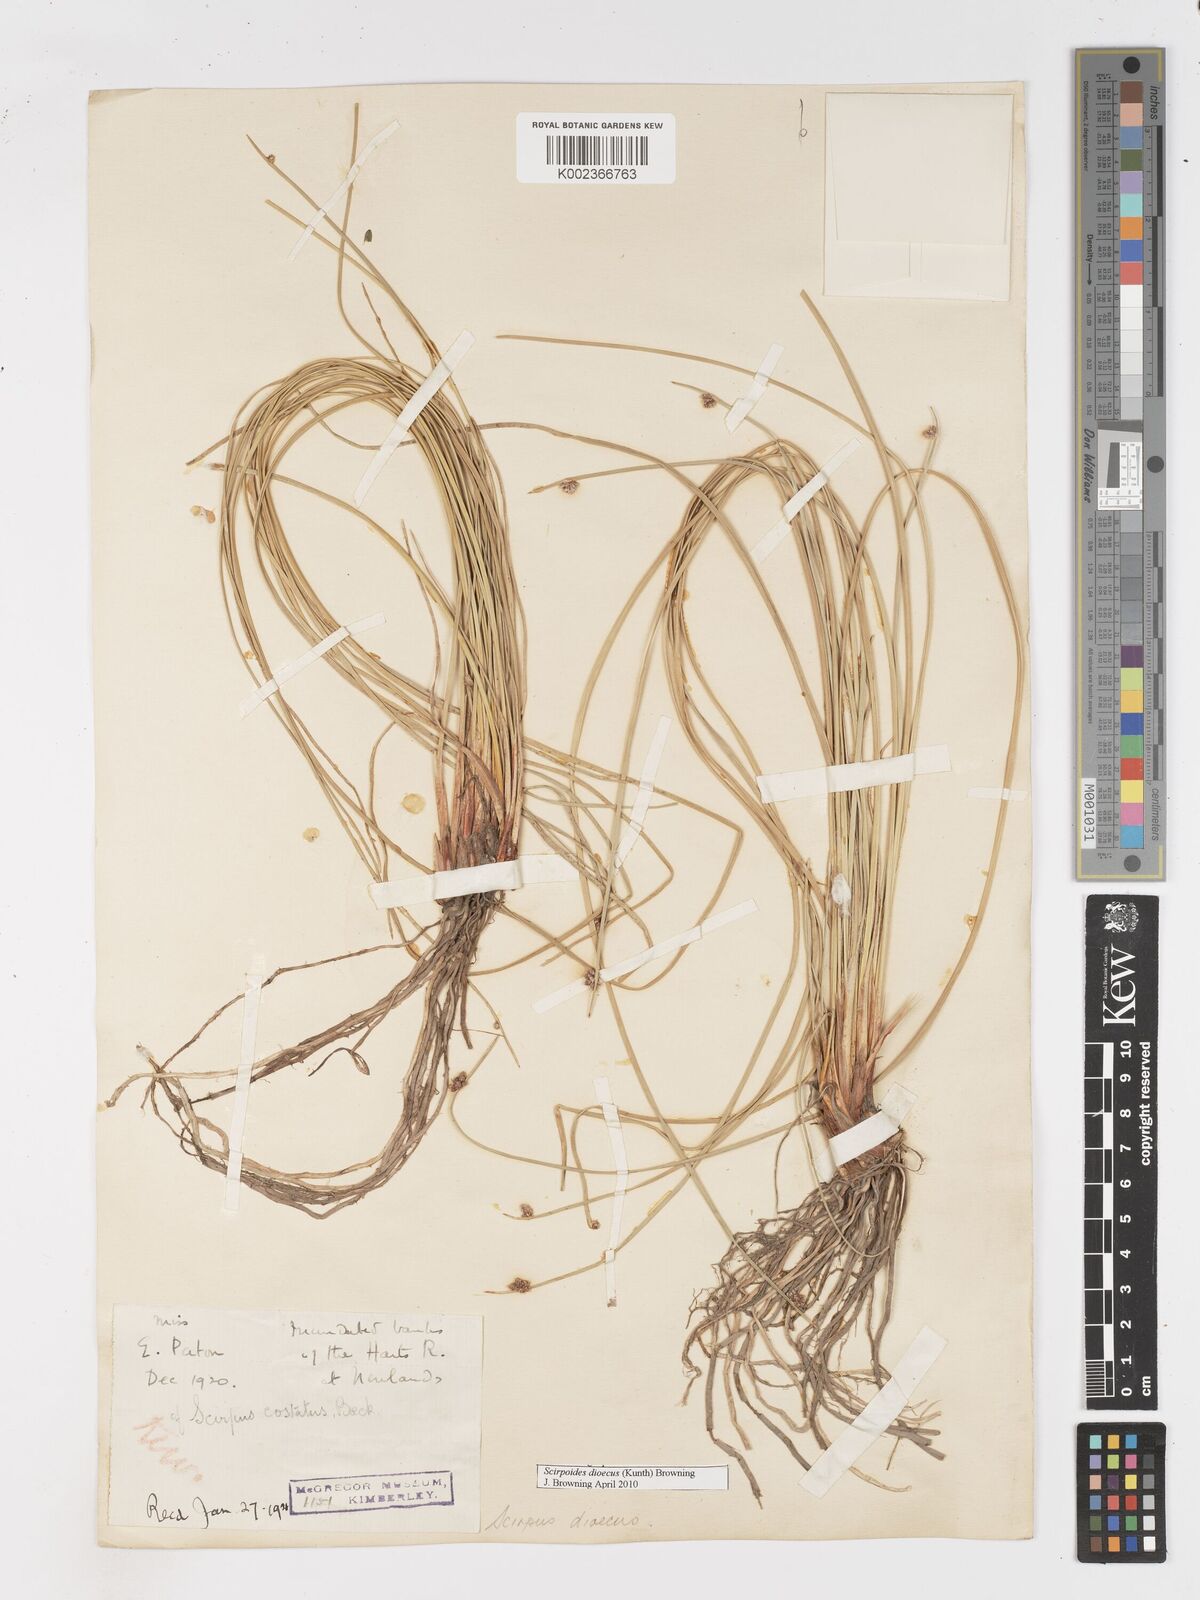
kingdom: Plantae
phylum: Tracheophyta
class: Liliopsida
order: Poales
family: Cyperaceae
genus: Afroscirpoides
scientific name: Afroscirpoides dioeca
